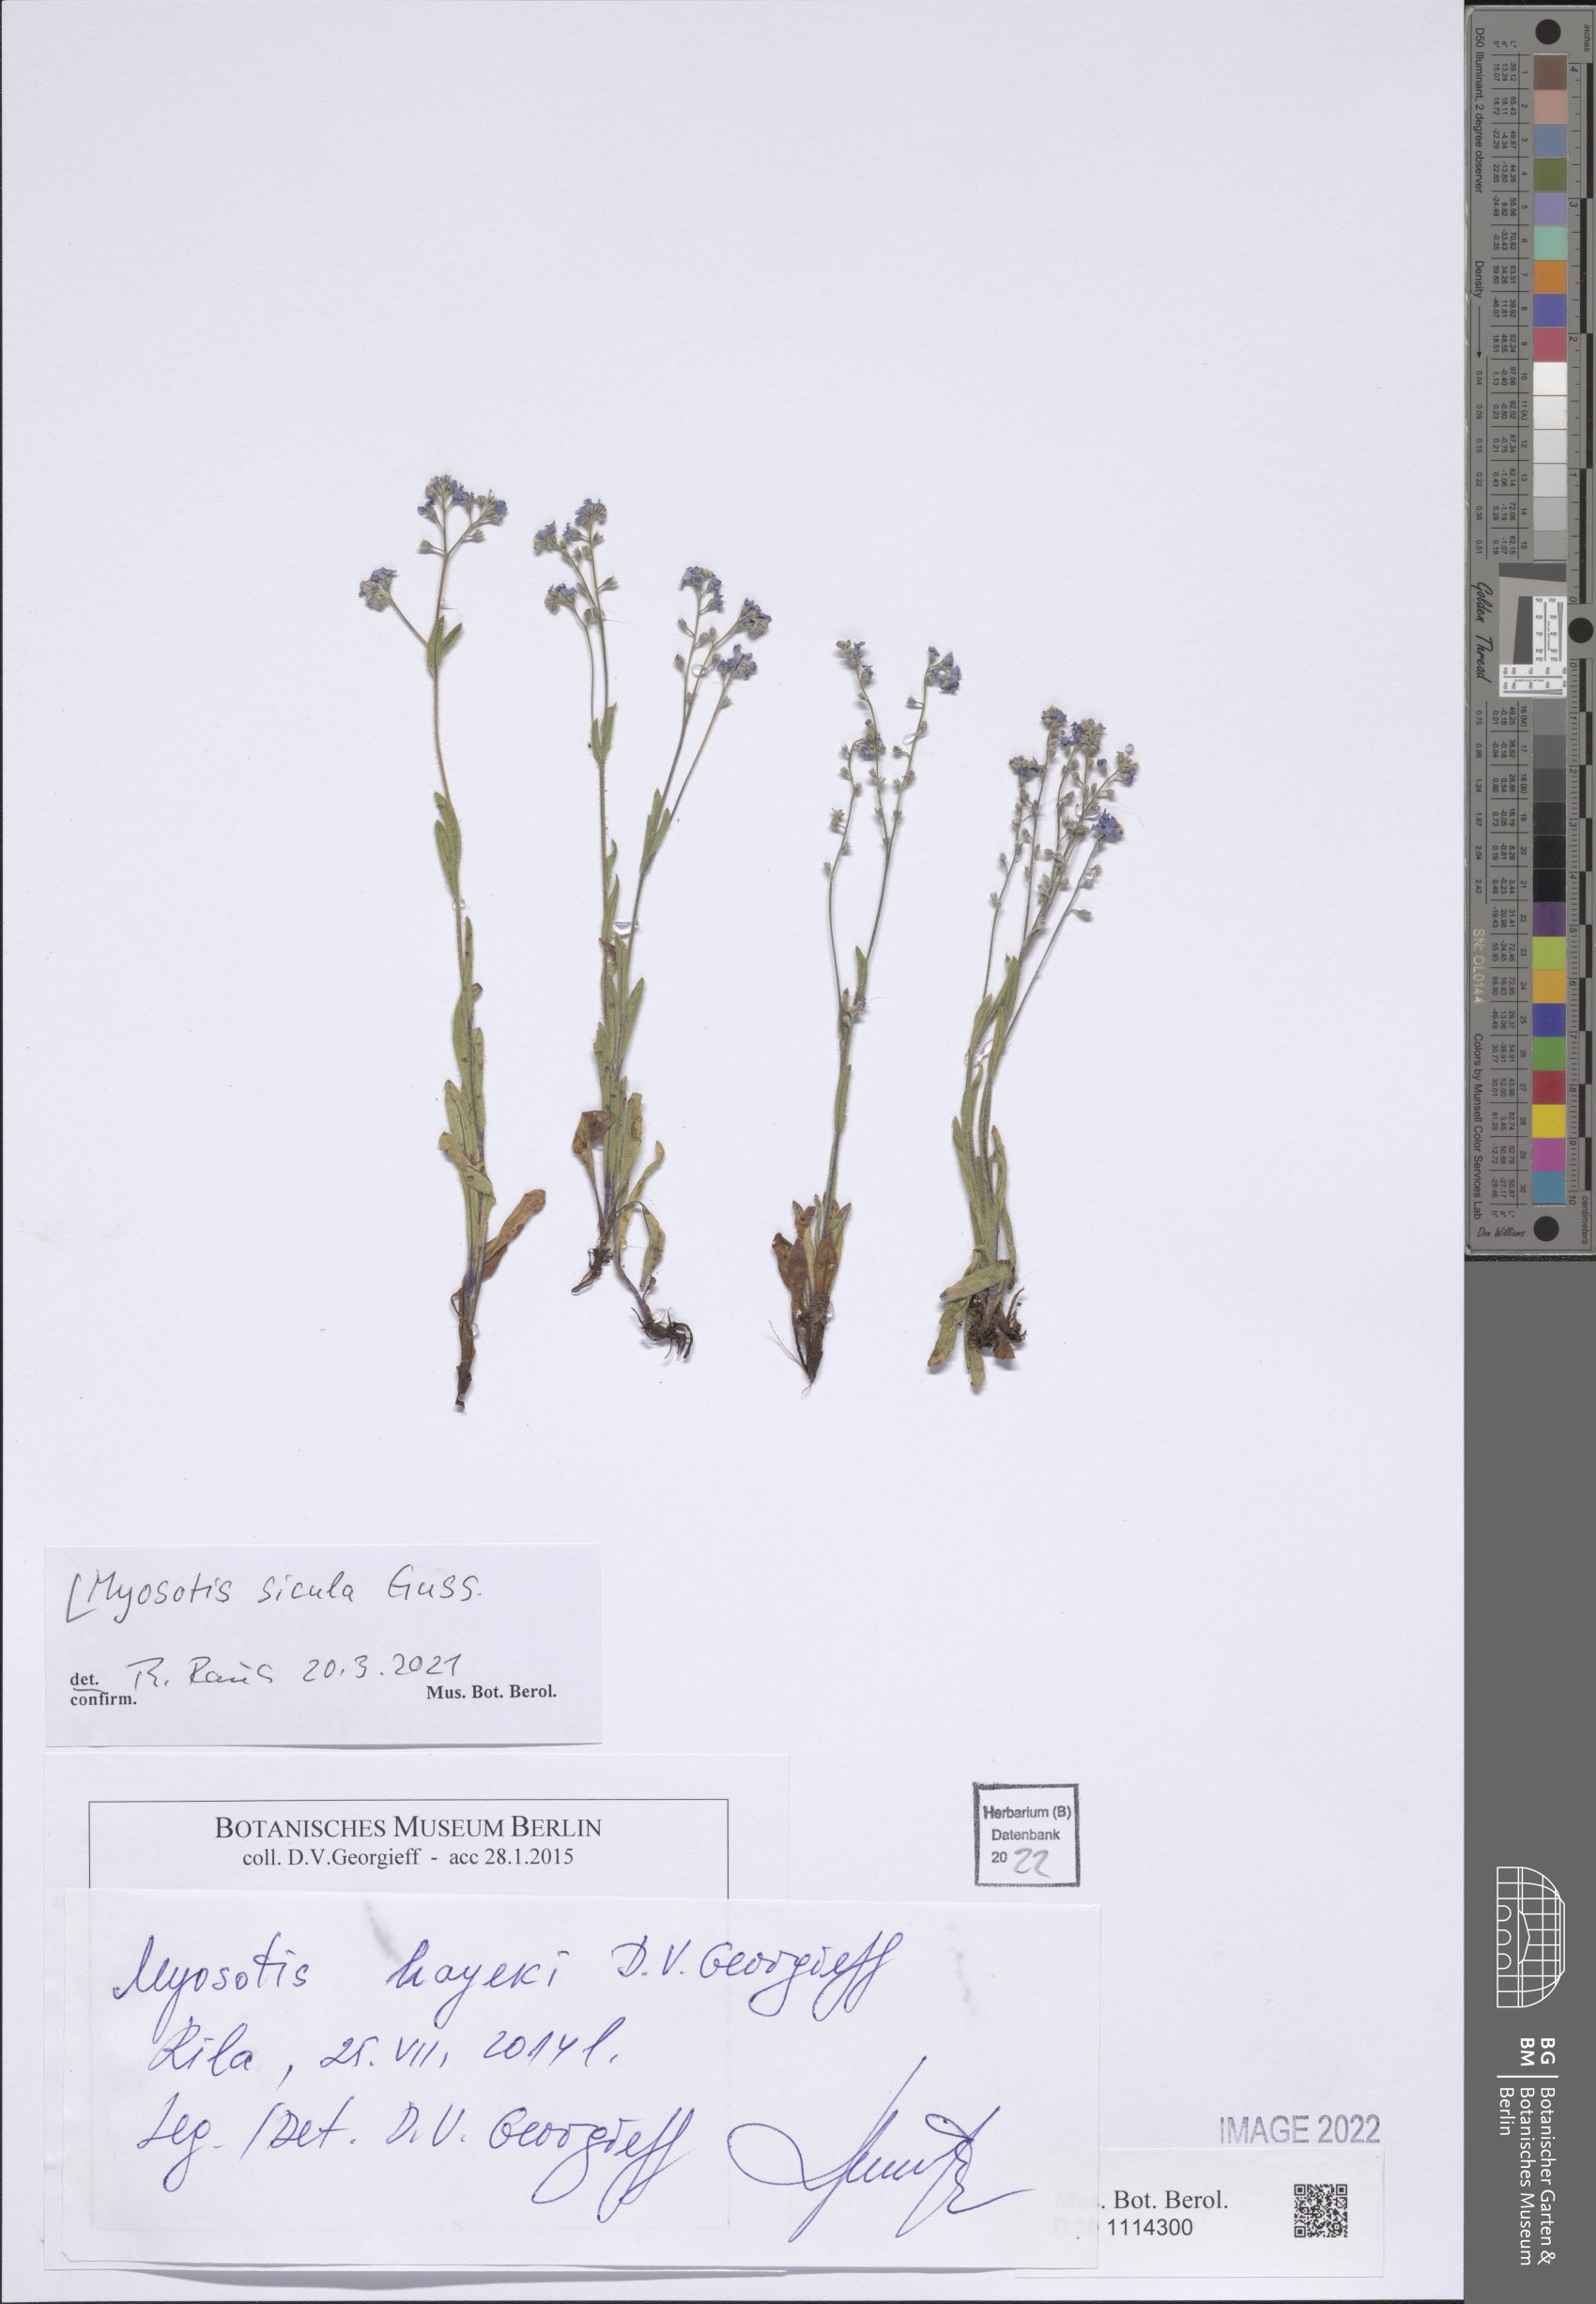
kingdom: Plantae
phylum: Tracheophyta
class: Magnoliopsida
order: Boraginales
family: Boraginaceae
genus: Myosotis
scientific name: Myosotis sicula
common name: Jersey forget-me-not
